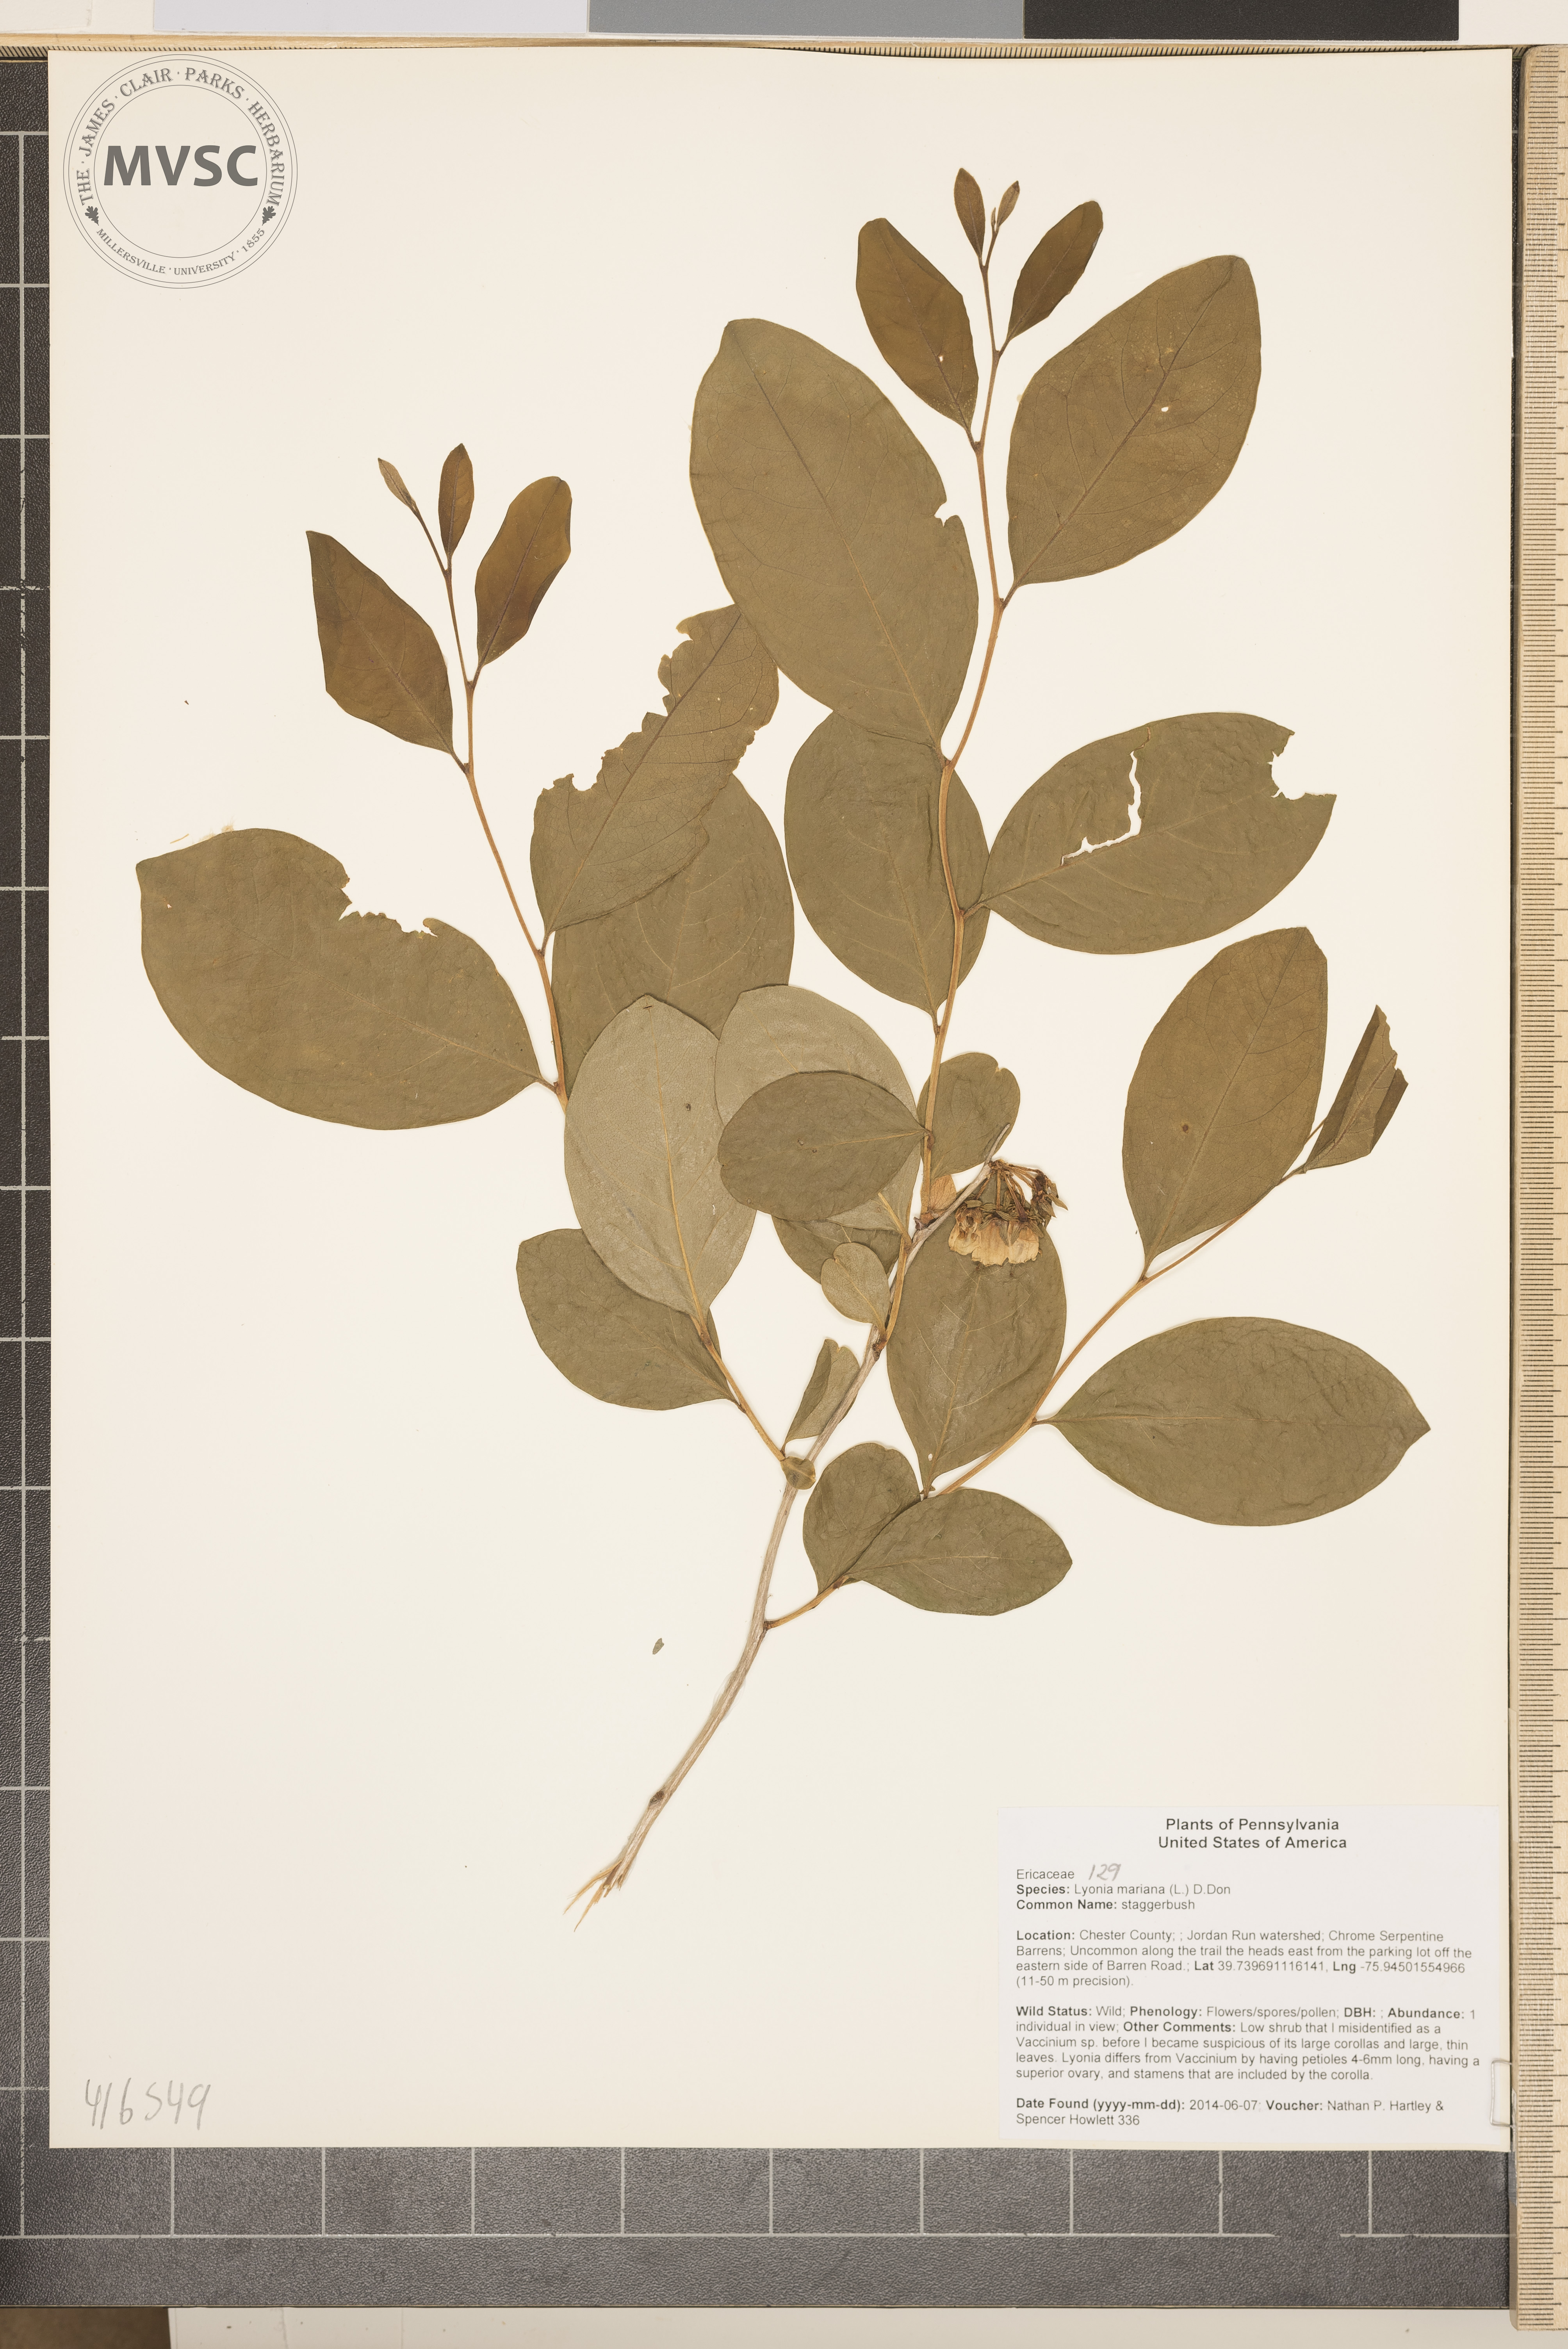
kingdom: Plantae
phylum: Tracheophyta
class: Magnoliopsida
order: Ericales
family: Ericaceae
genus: Lyonia
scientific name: Lyonia mariana
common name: staggerbush
